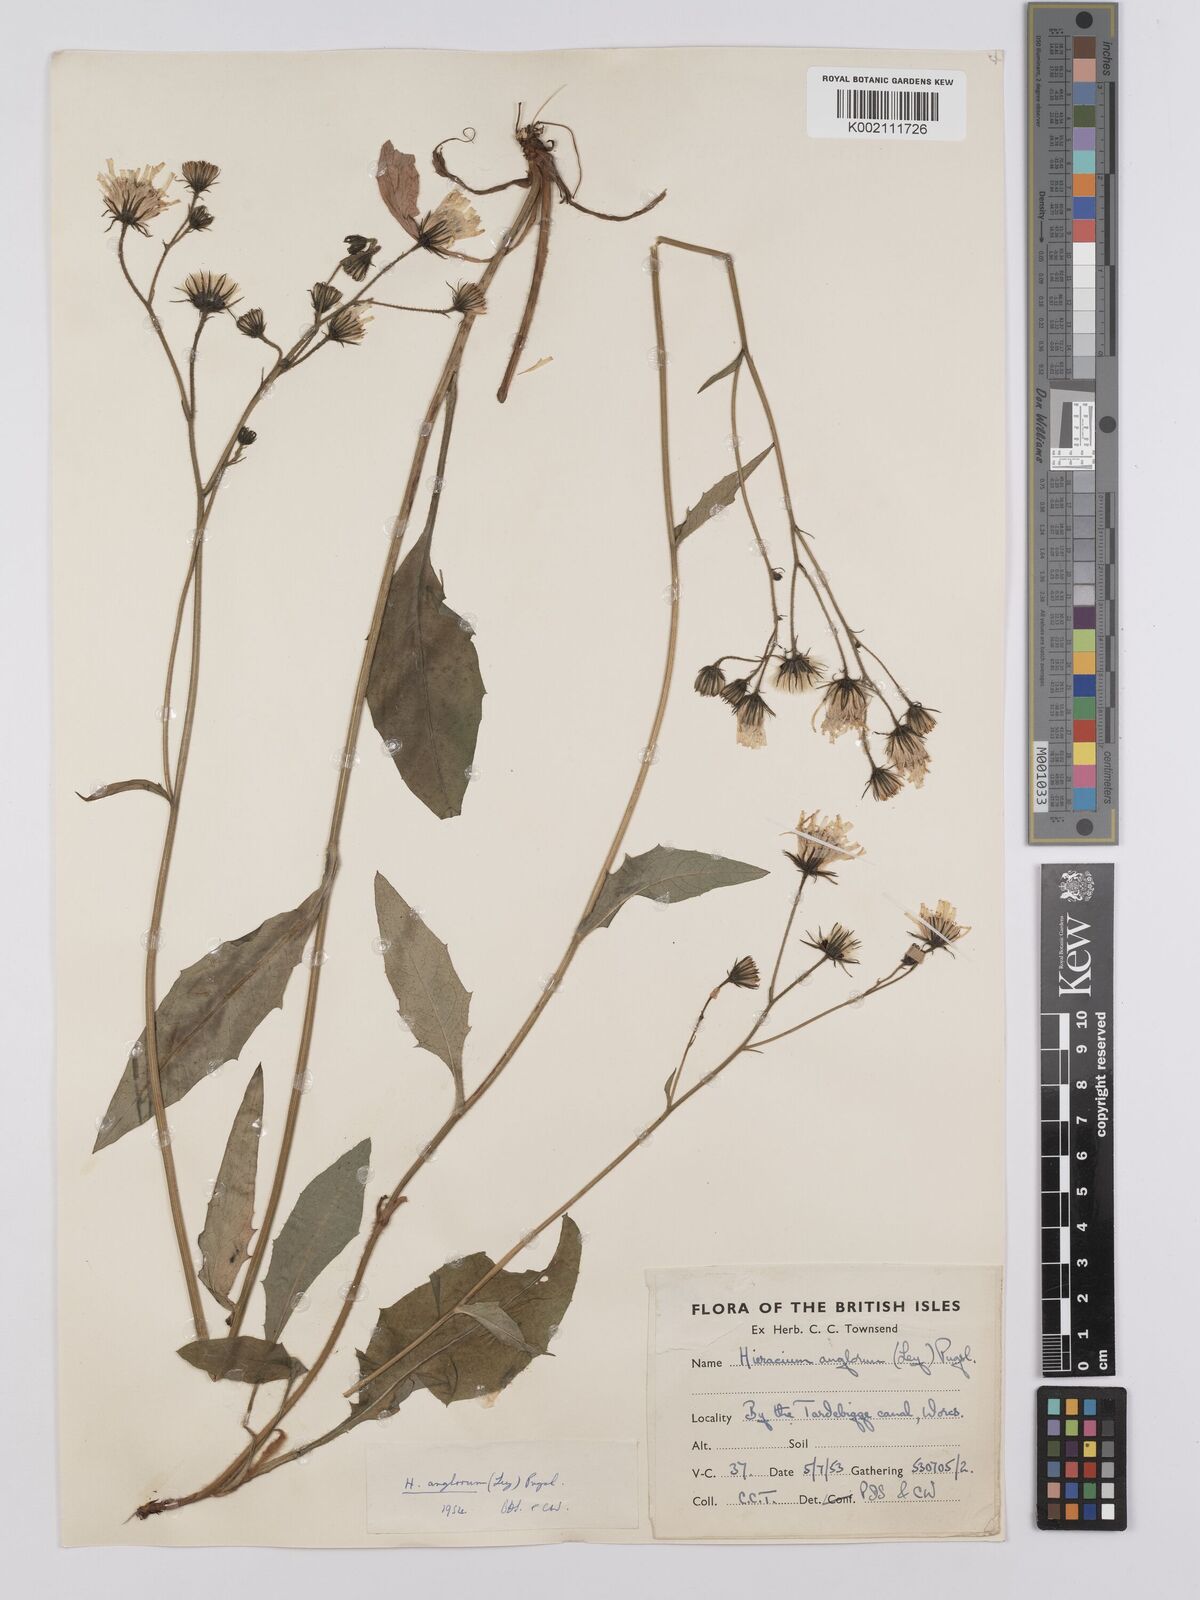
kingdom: Plantae
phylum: Tracheophyta
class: Magnoliopsida
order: Asterales
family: Asteraceae
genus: Hieracium
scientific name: Hieracium anglorum
